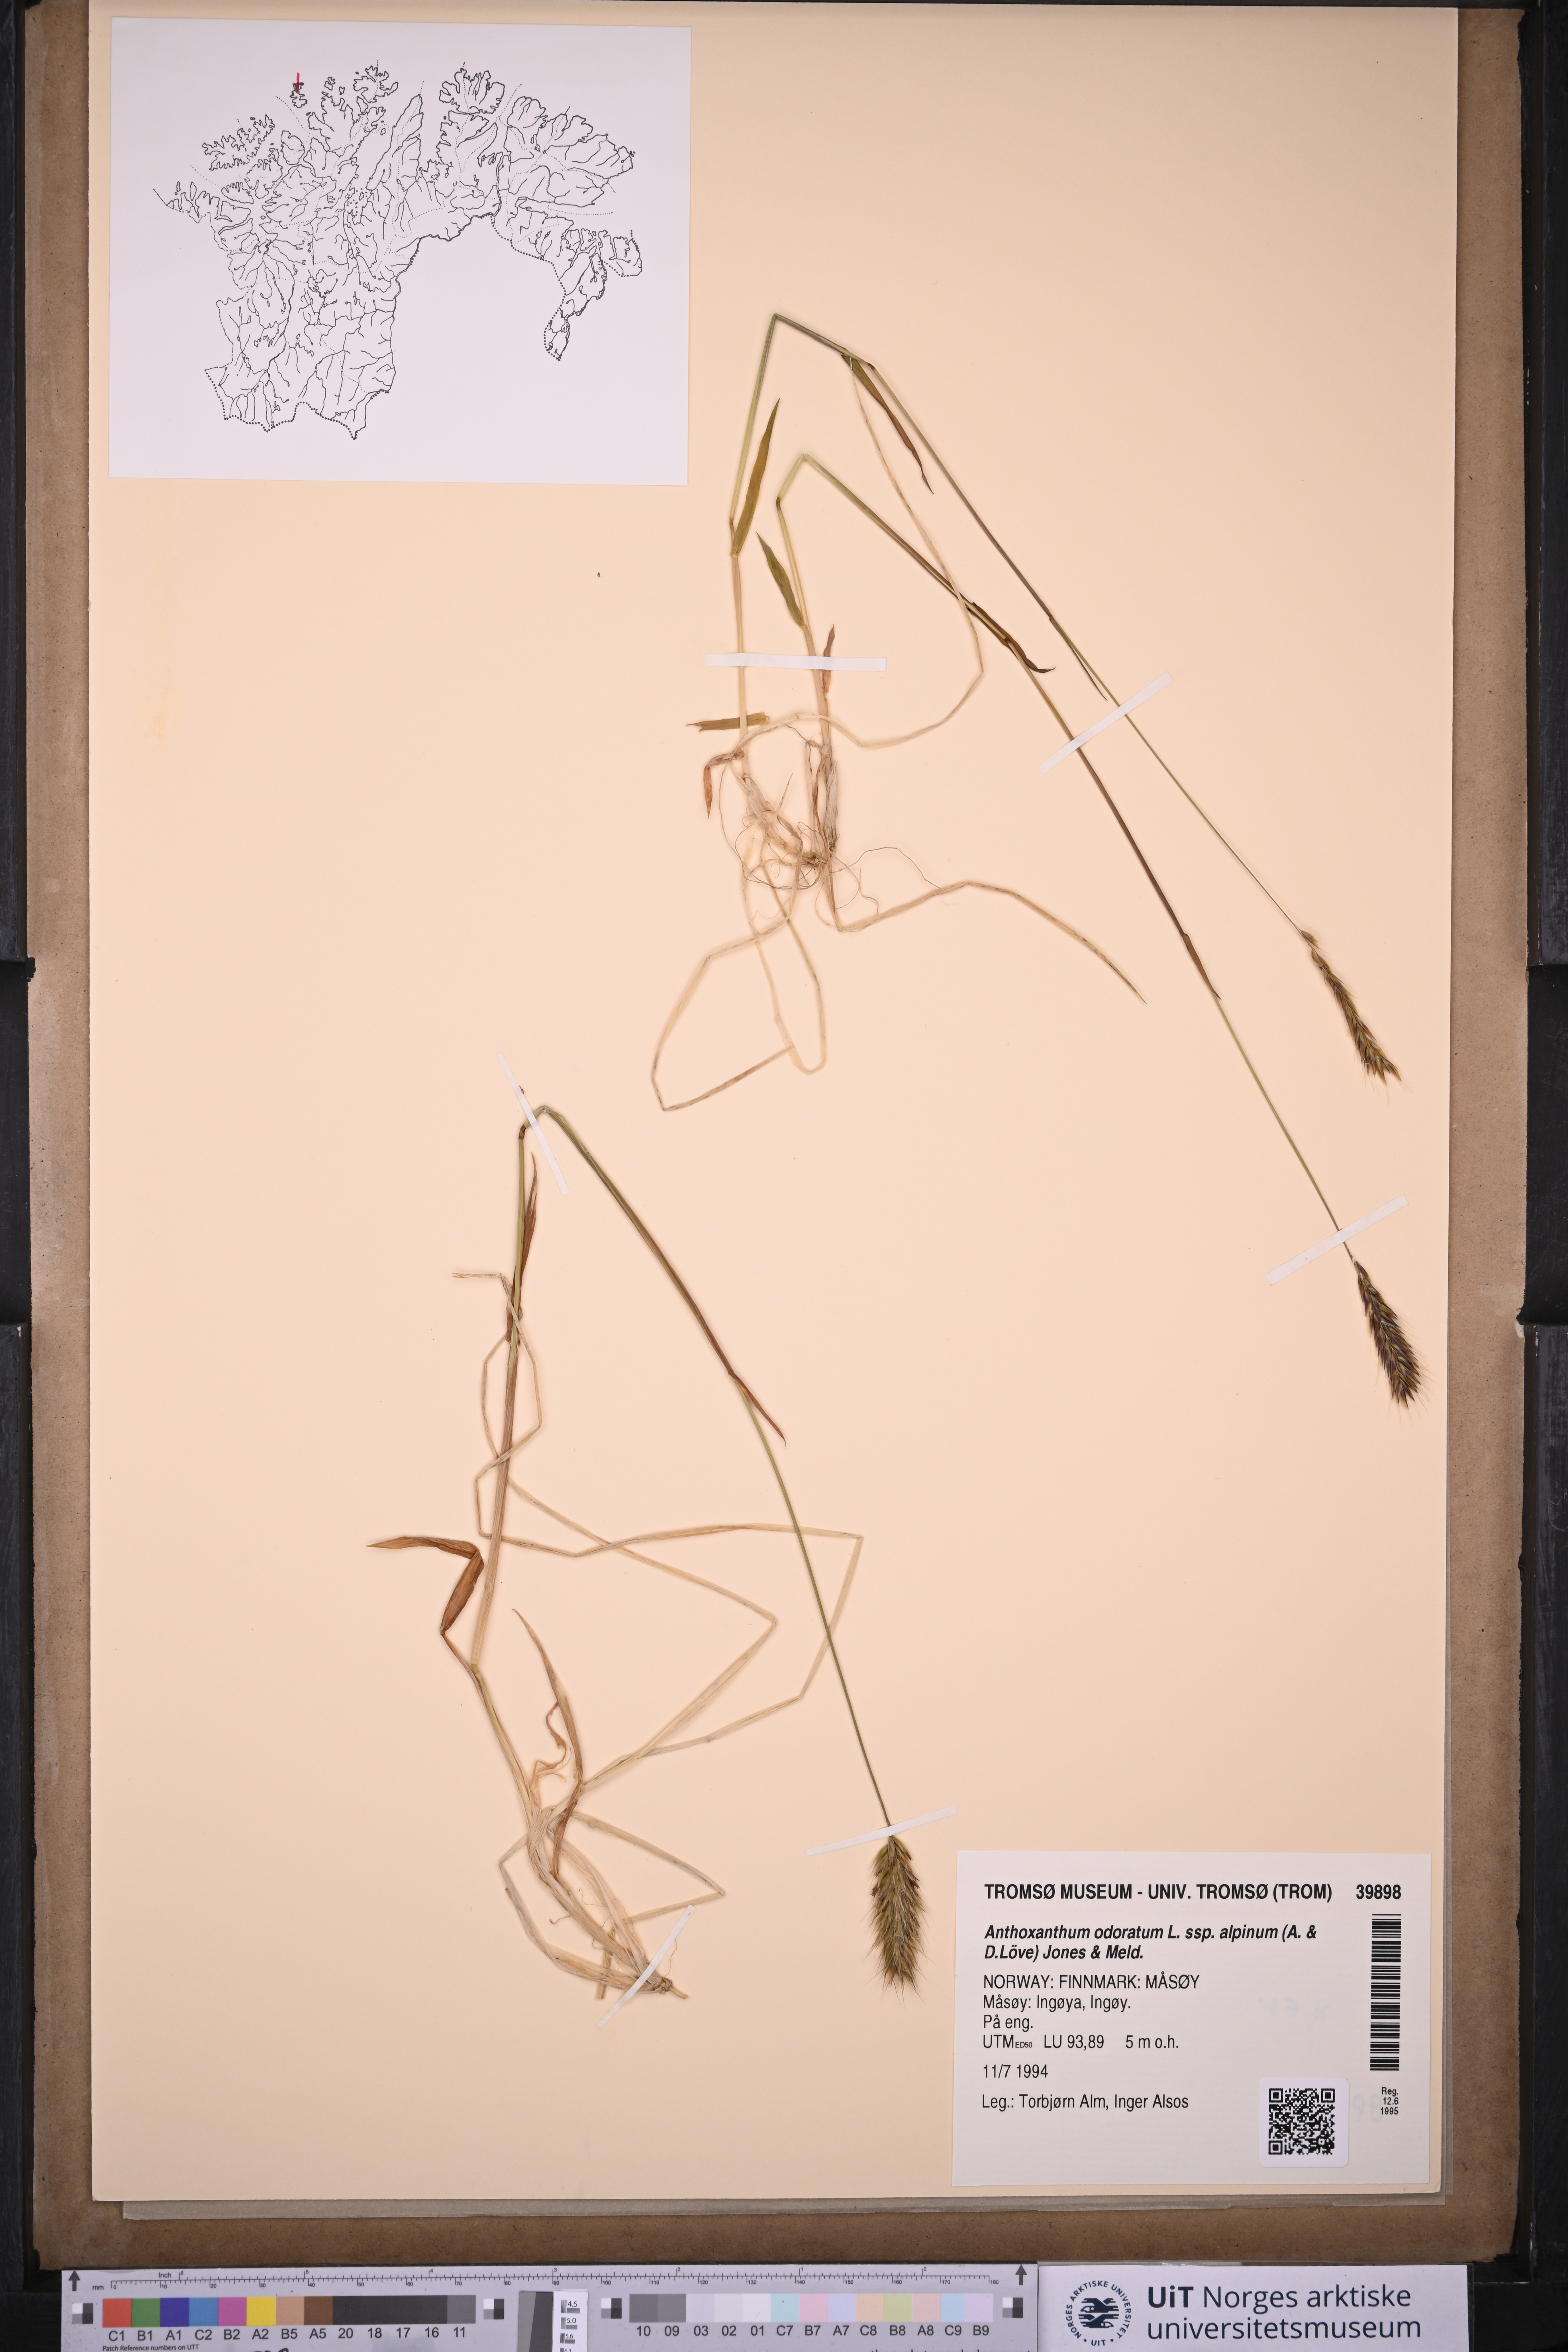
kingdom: Plantae
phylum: Tracheophyta
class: Liliopsida
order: Poales
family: Poaceae
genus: Anthoxanthum
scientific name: Anthoxanthum nipponicum
